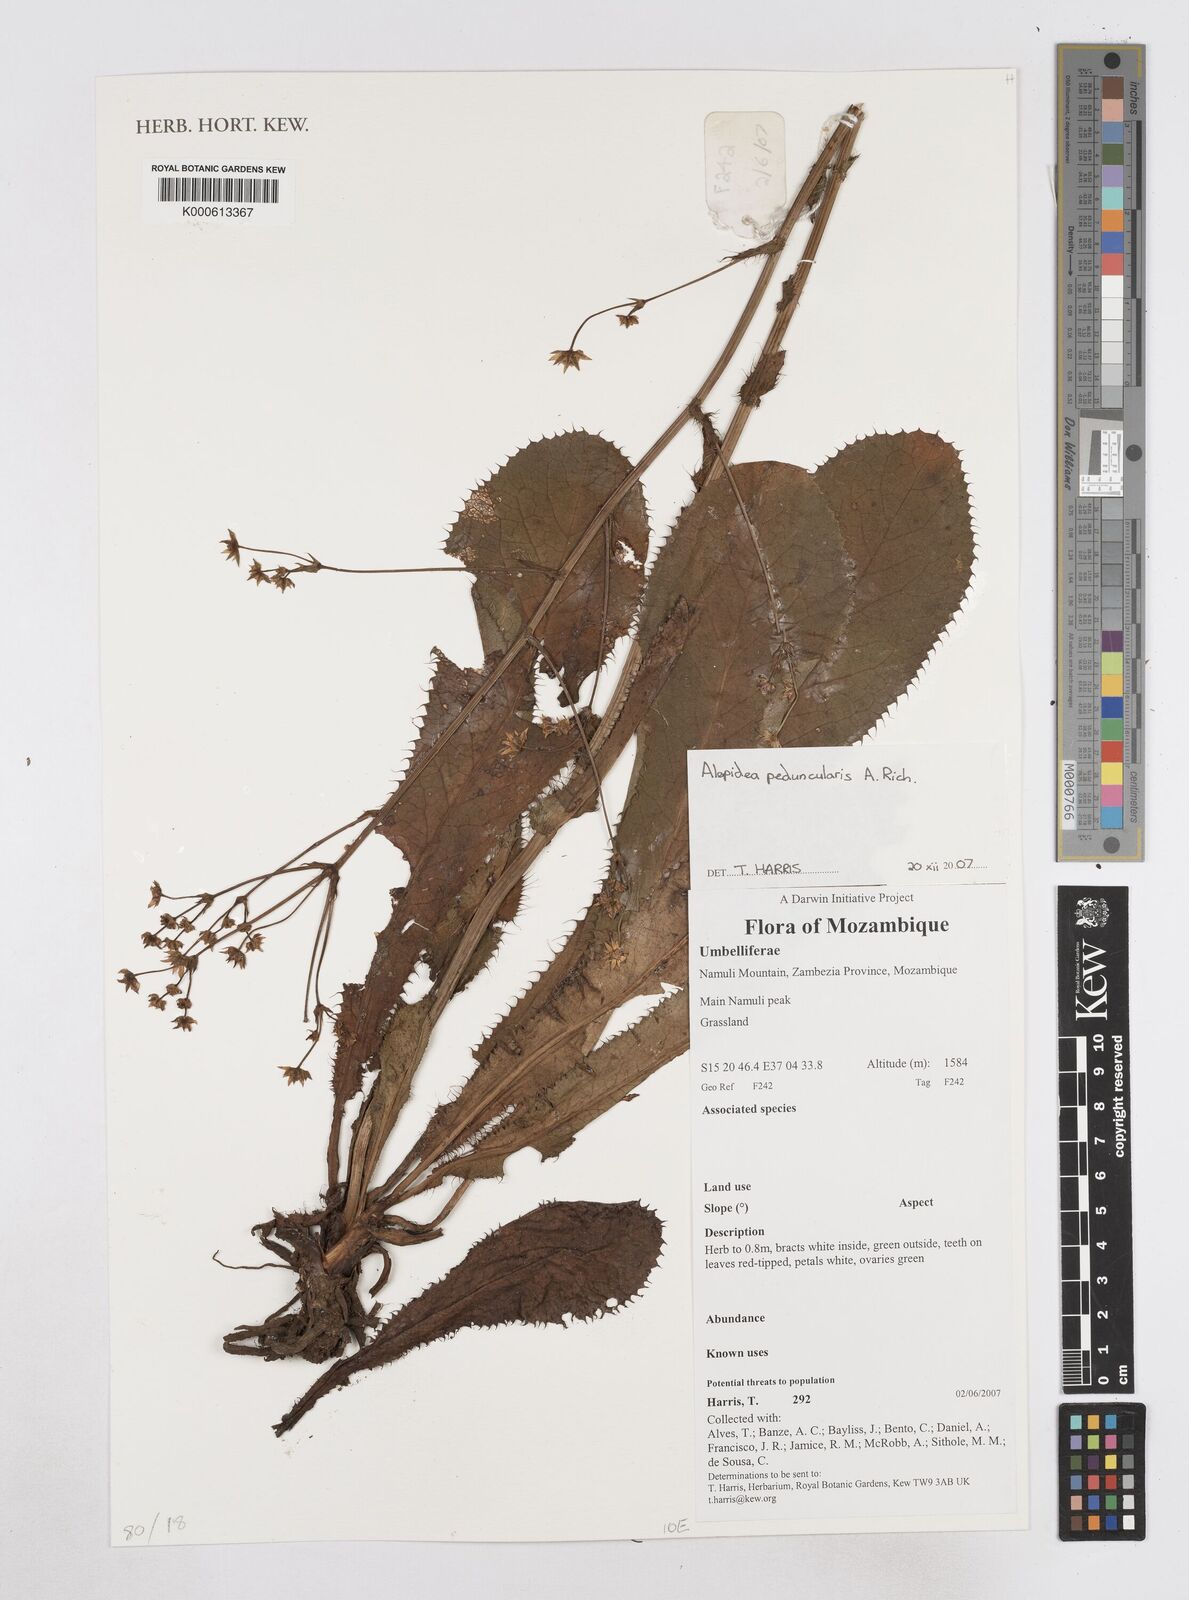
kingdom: Plantae
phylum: Tracheophyta
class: Magnoliopsida
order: Apiales
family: Apiaceae
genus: Alepidea
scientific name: Alepidea peduncularis
